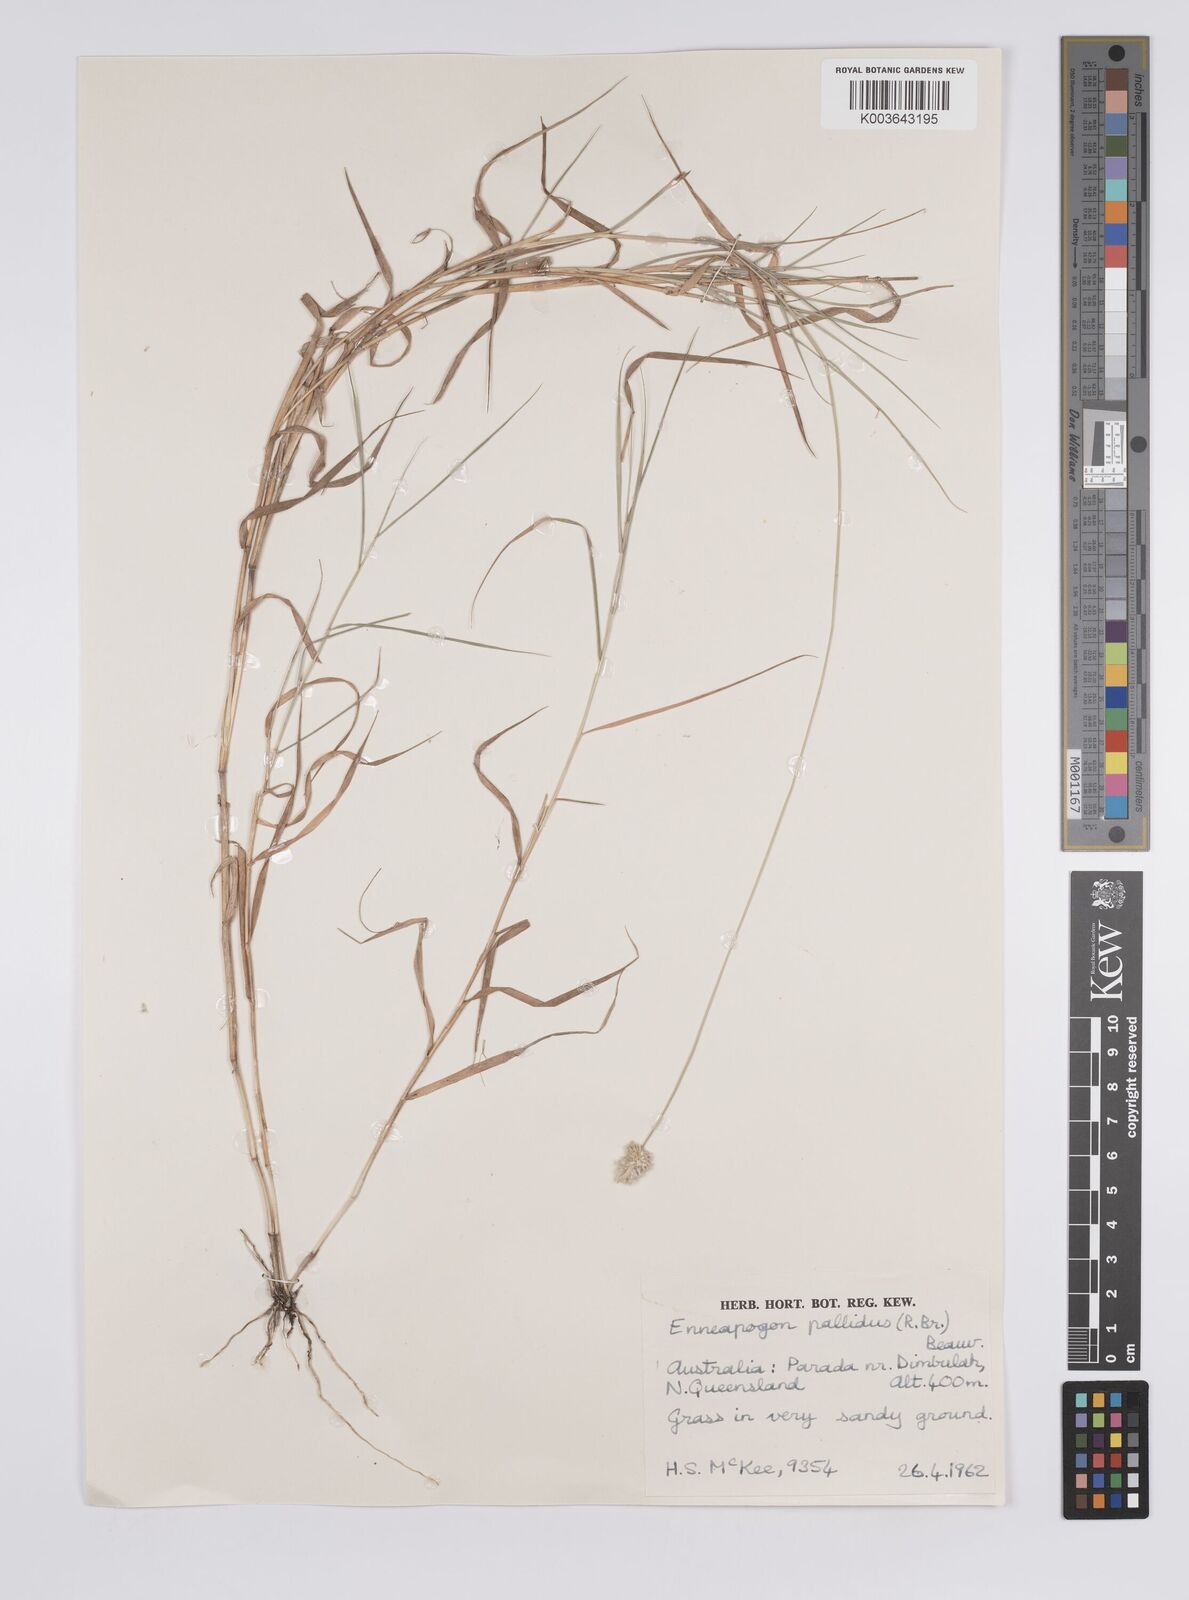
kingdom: Plantae
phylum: Tracheophyta
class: Liliopsida
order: Poales
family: Poaceae
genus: Enneapogon
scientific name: Enneapogon
